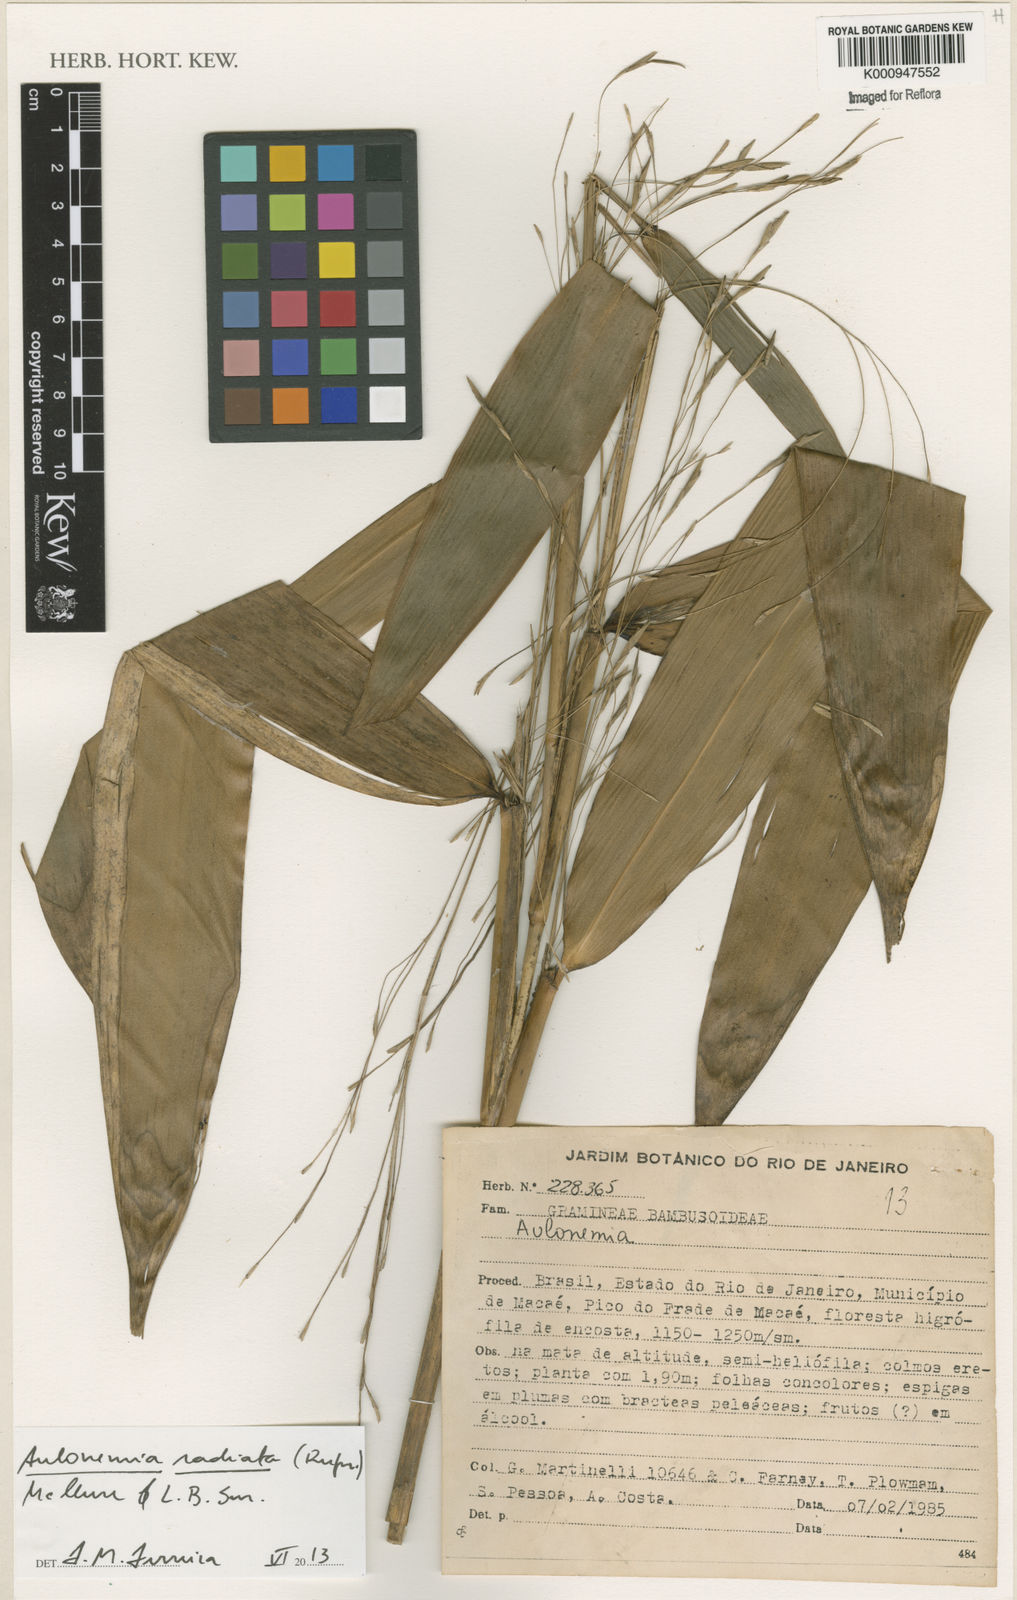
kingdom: Plantae
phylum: Tracheophyta
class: Liliopsida
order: Poales
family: Poaceae
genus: Aulonemia
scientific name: Aulonemia radiata
